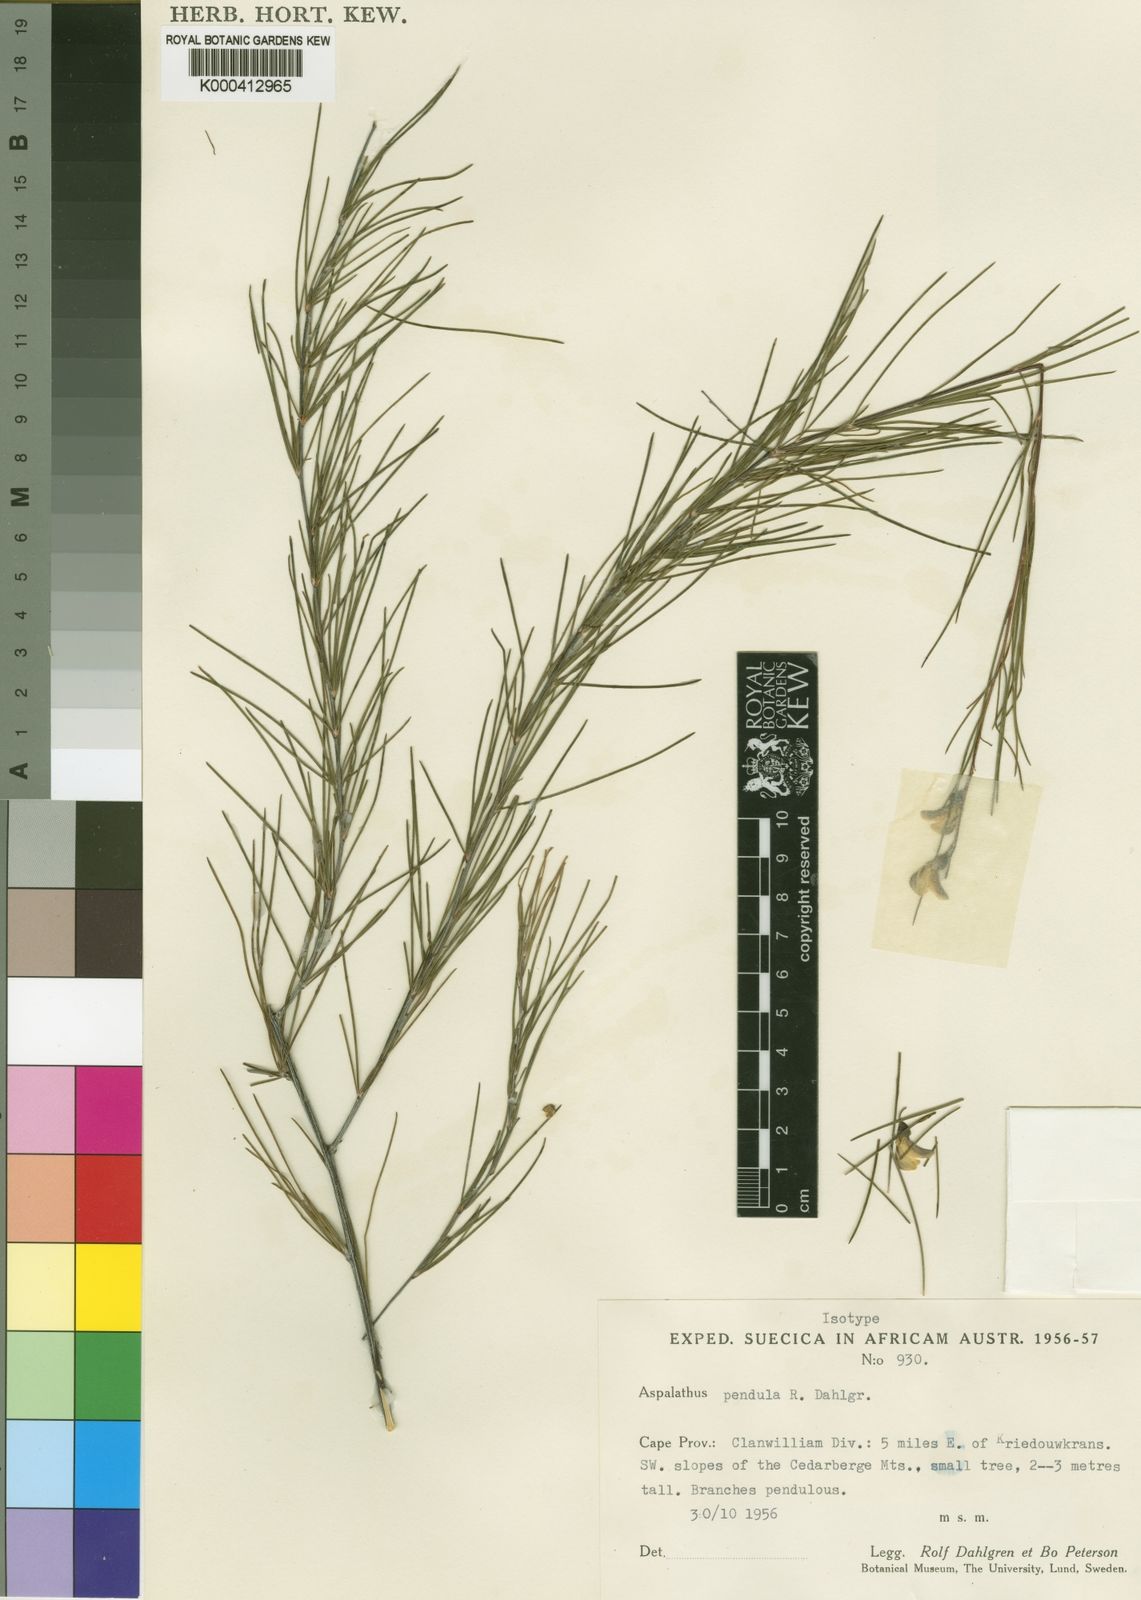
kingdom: Plantae
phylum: Tracheophyta
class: Magnoliopsida
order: Fabales
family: Fabaceae
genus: Aspalathus
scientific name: Aspalathus pendula
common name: Golden tea
